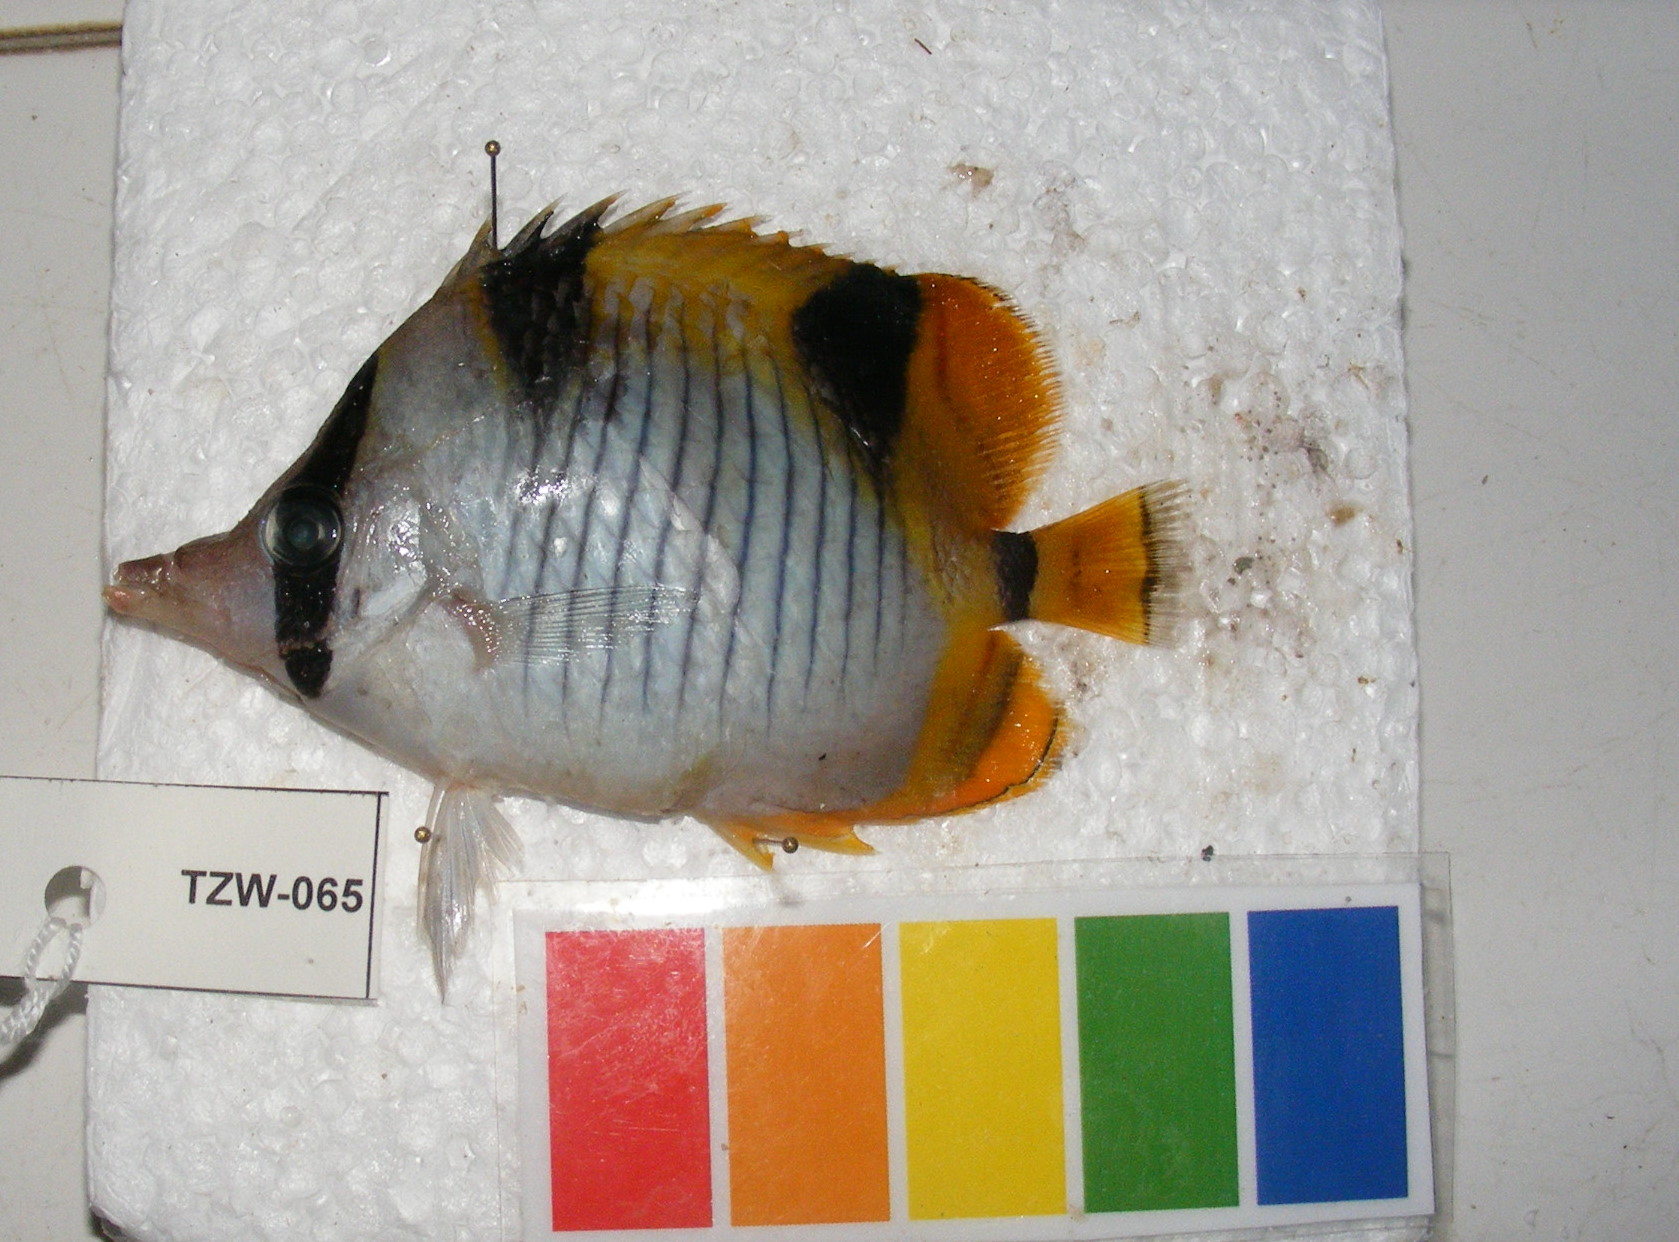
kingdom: Animalia
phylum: Chordata
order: Perciformes
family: Chaetodontidae
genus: Chaetodon
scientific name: Chaetodon falcula
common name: Blackwedged butterflyfish
